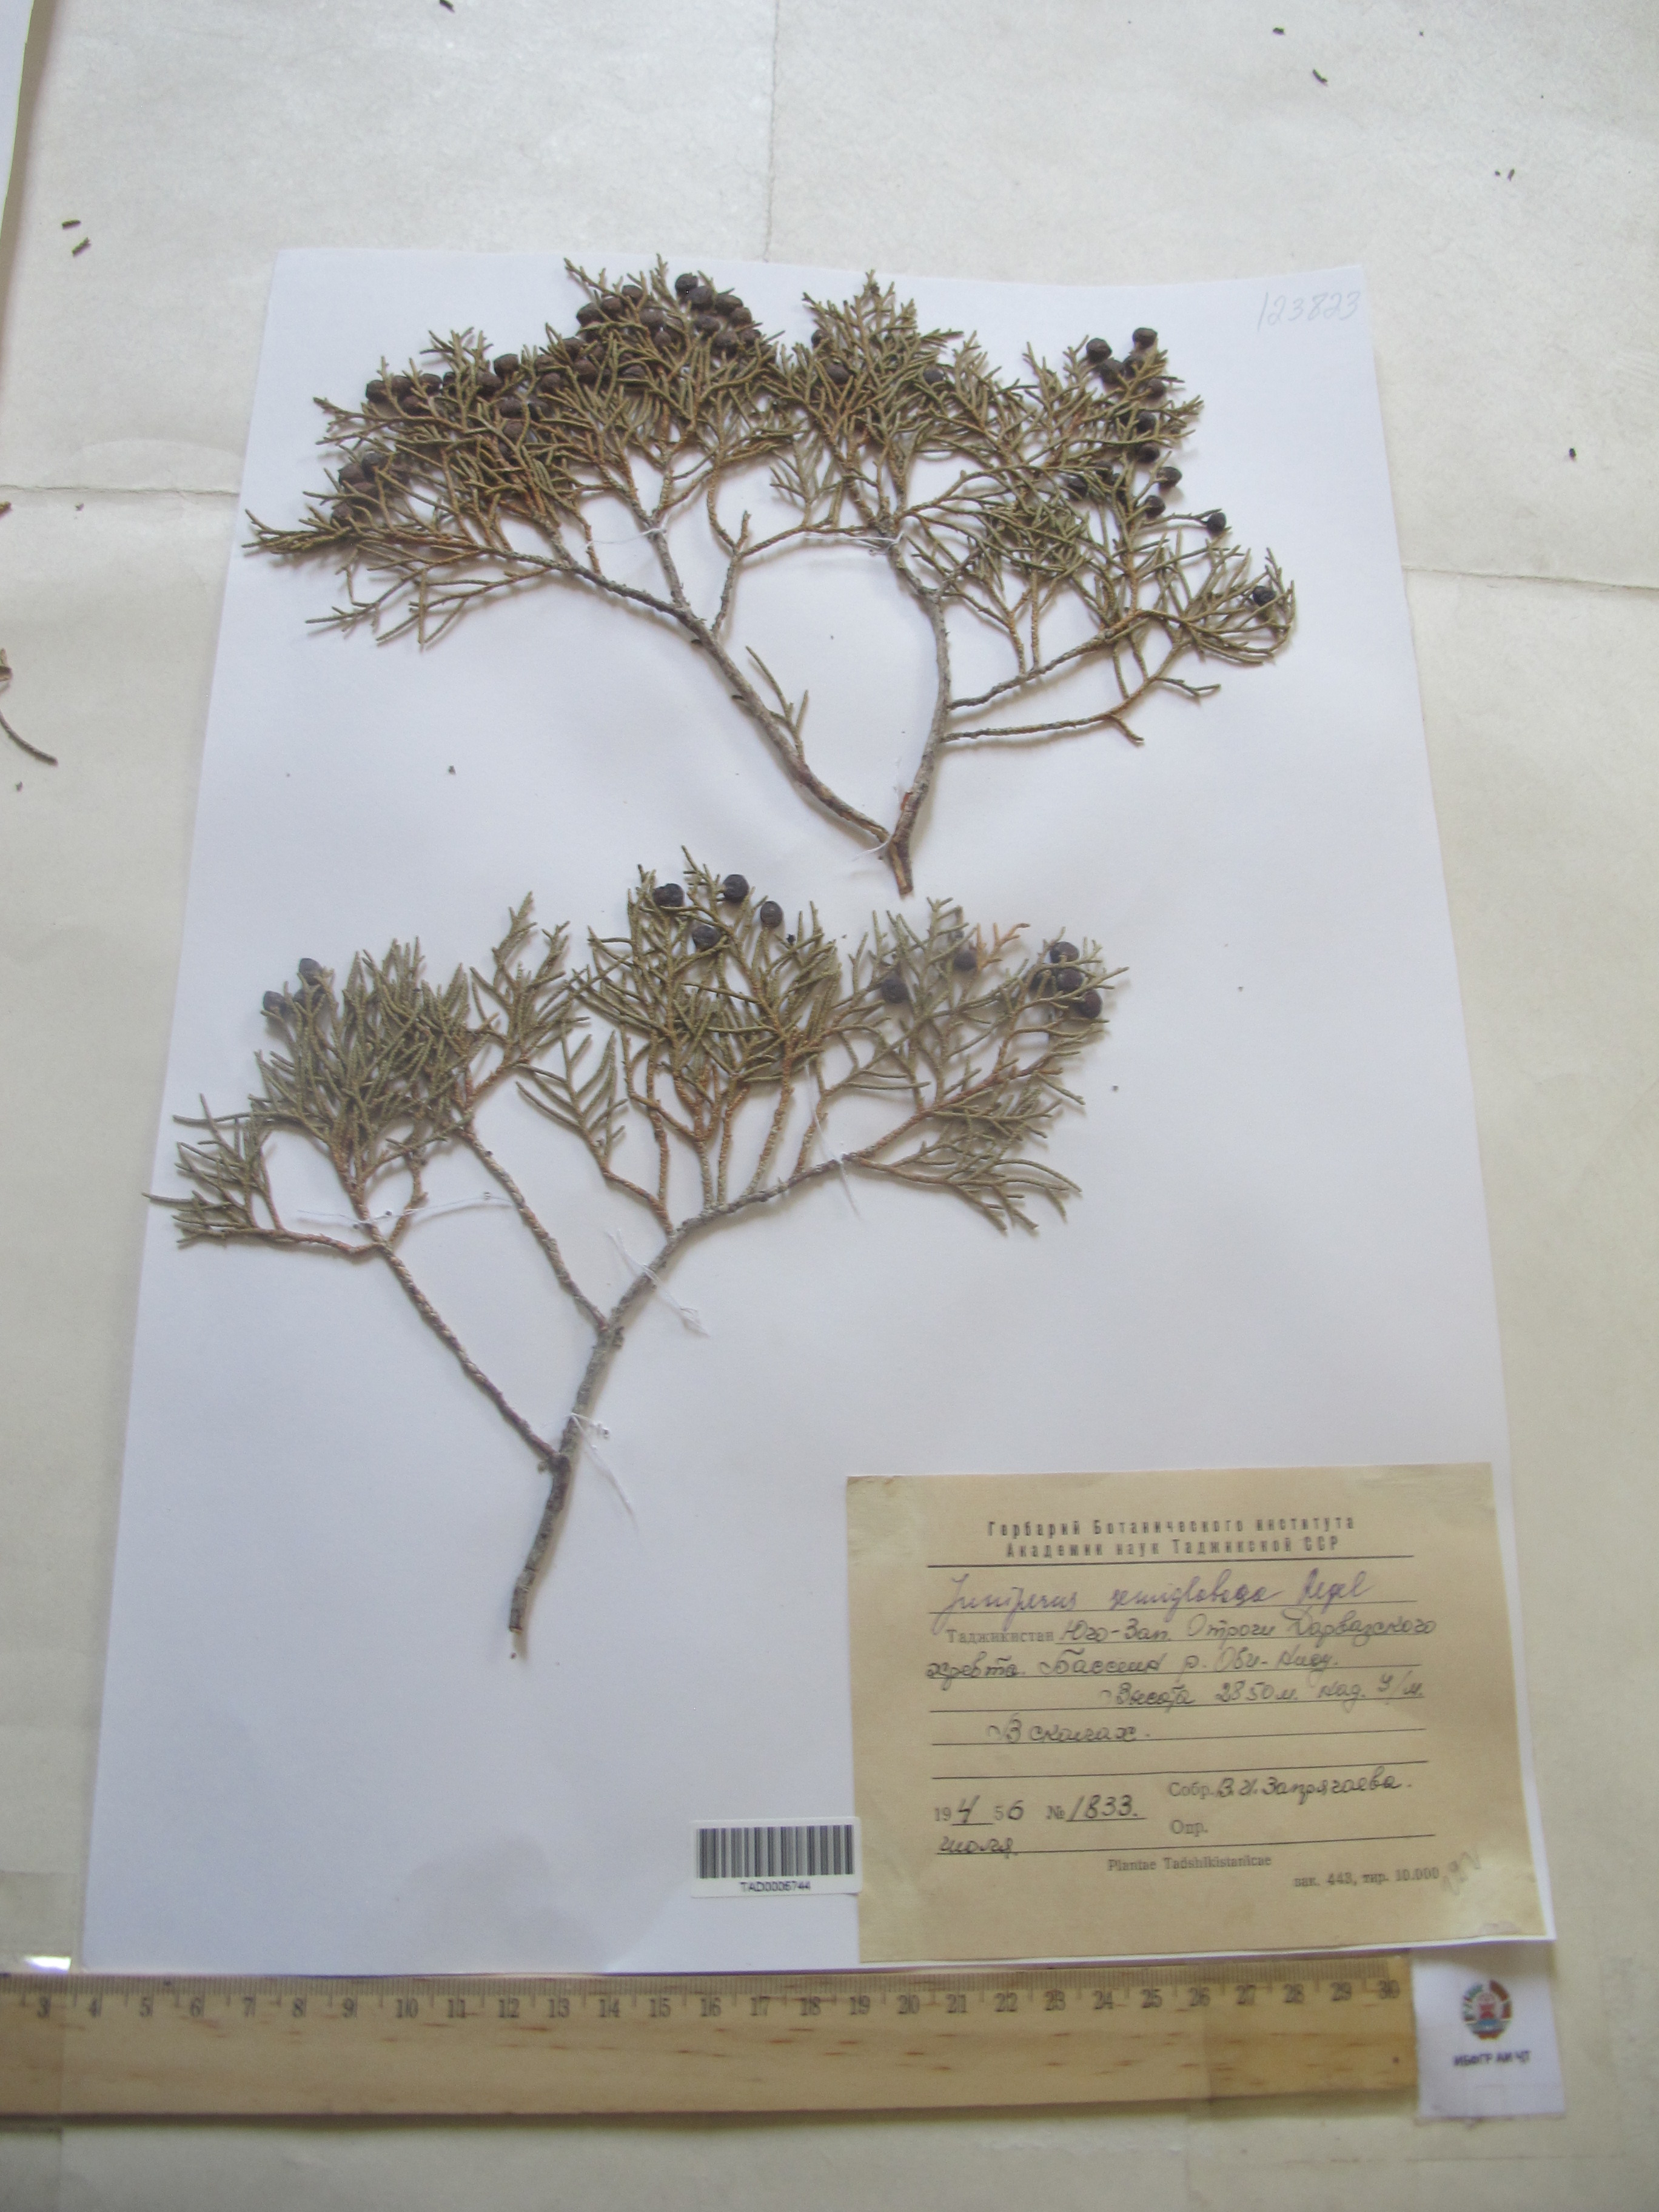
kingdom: Plantae
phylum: Tracheophyta
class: Pinopsida
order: Pinales
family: Cupressaceae
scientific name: Cupressaceae
